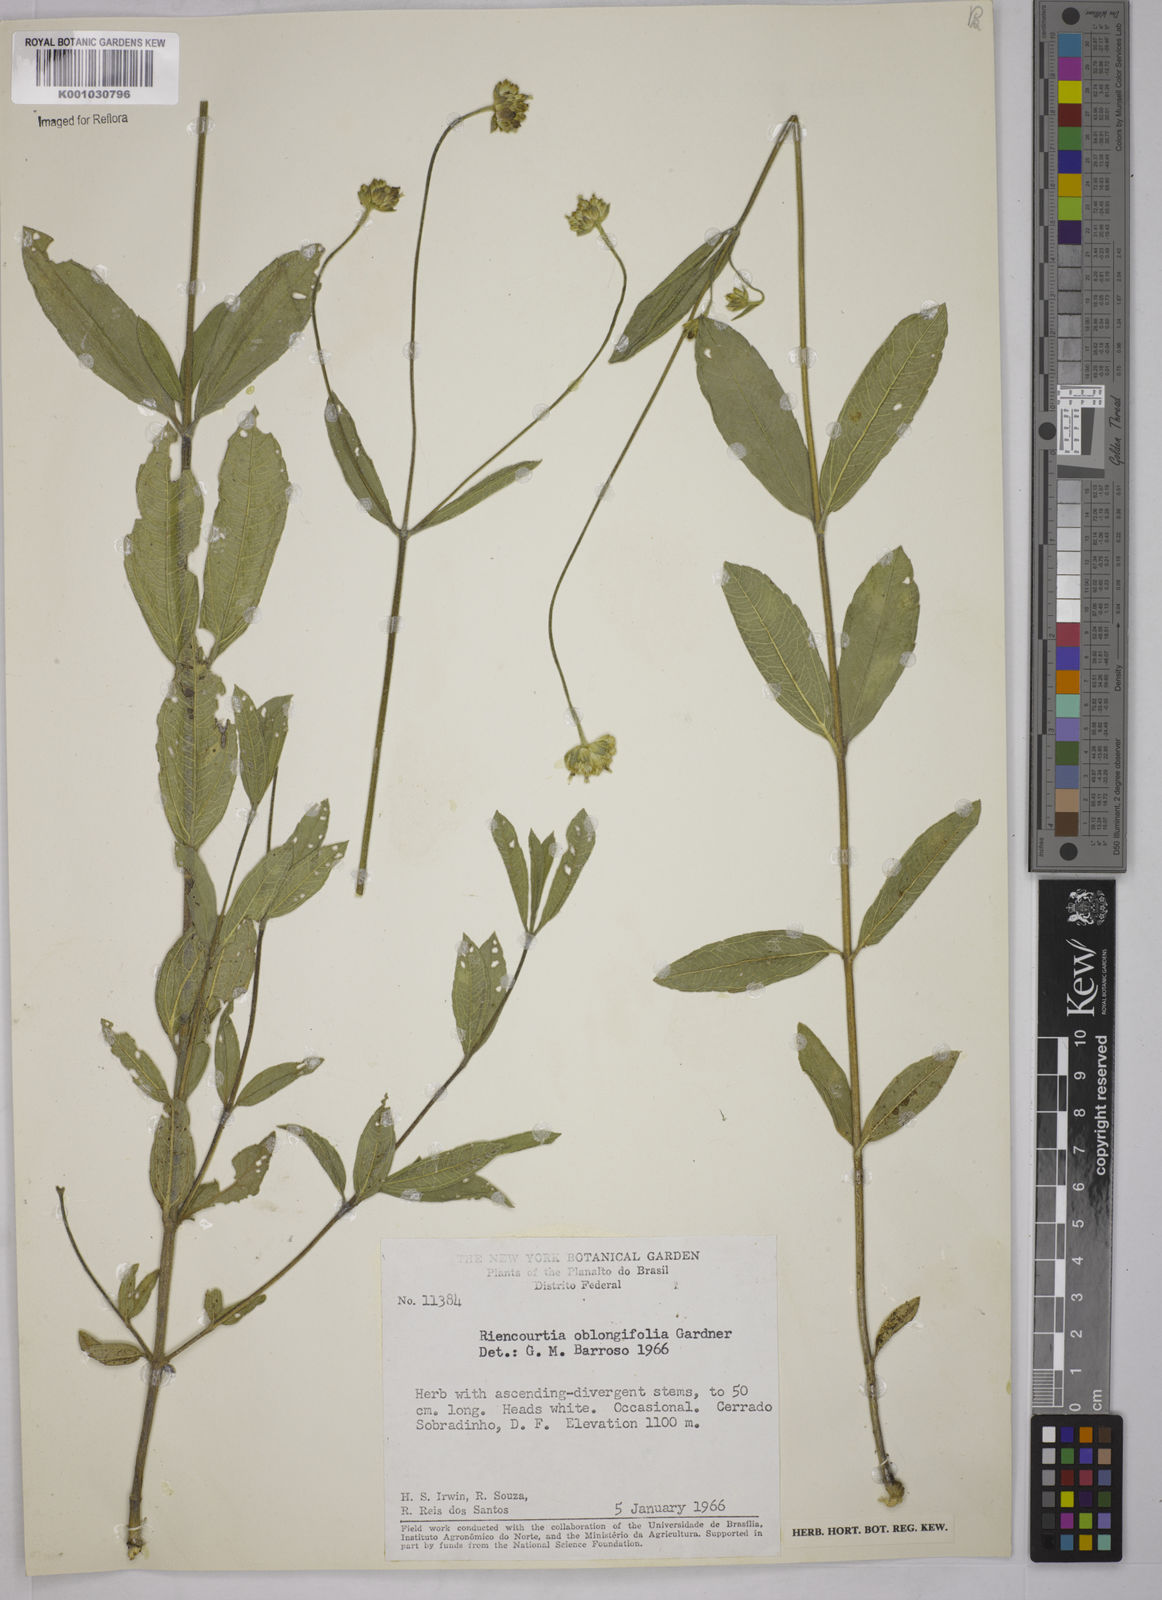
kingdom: Plantae
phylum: Tracheophyta
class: Magnoliopsida
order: Asterales
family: Asteraceae
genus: Riencourtia
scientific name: Riencourtia oblongifolia
